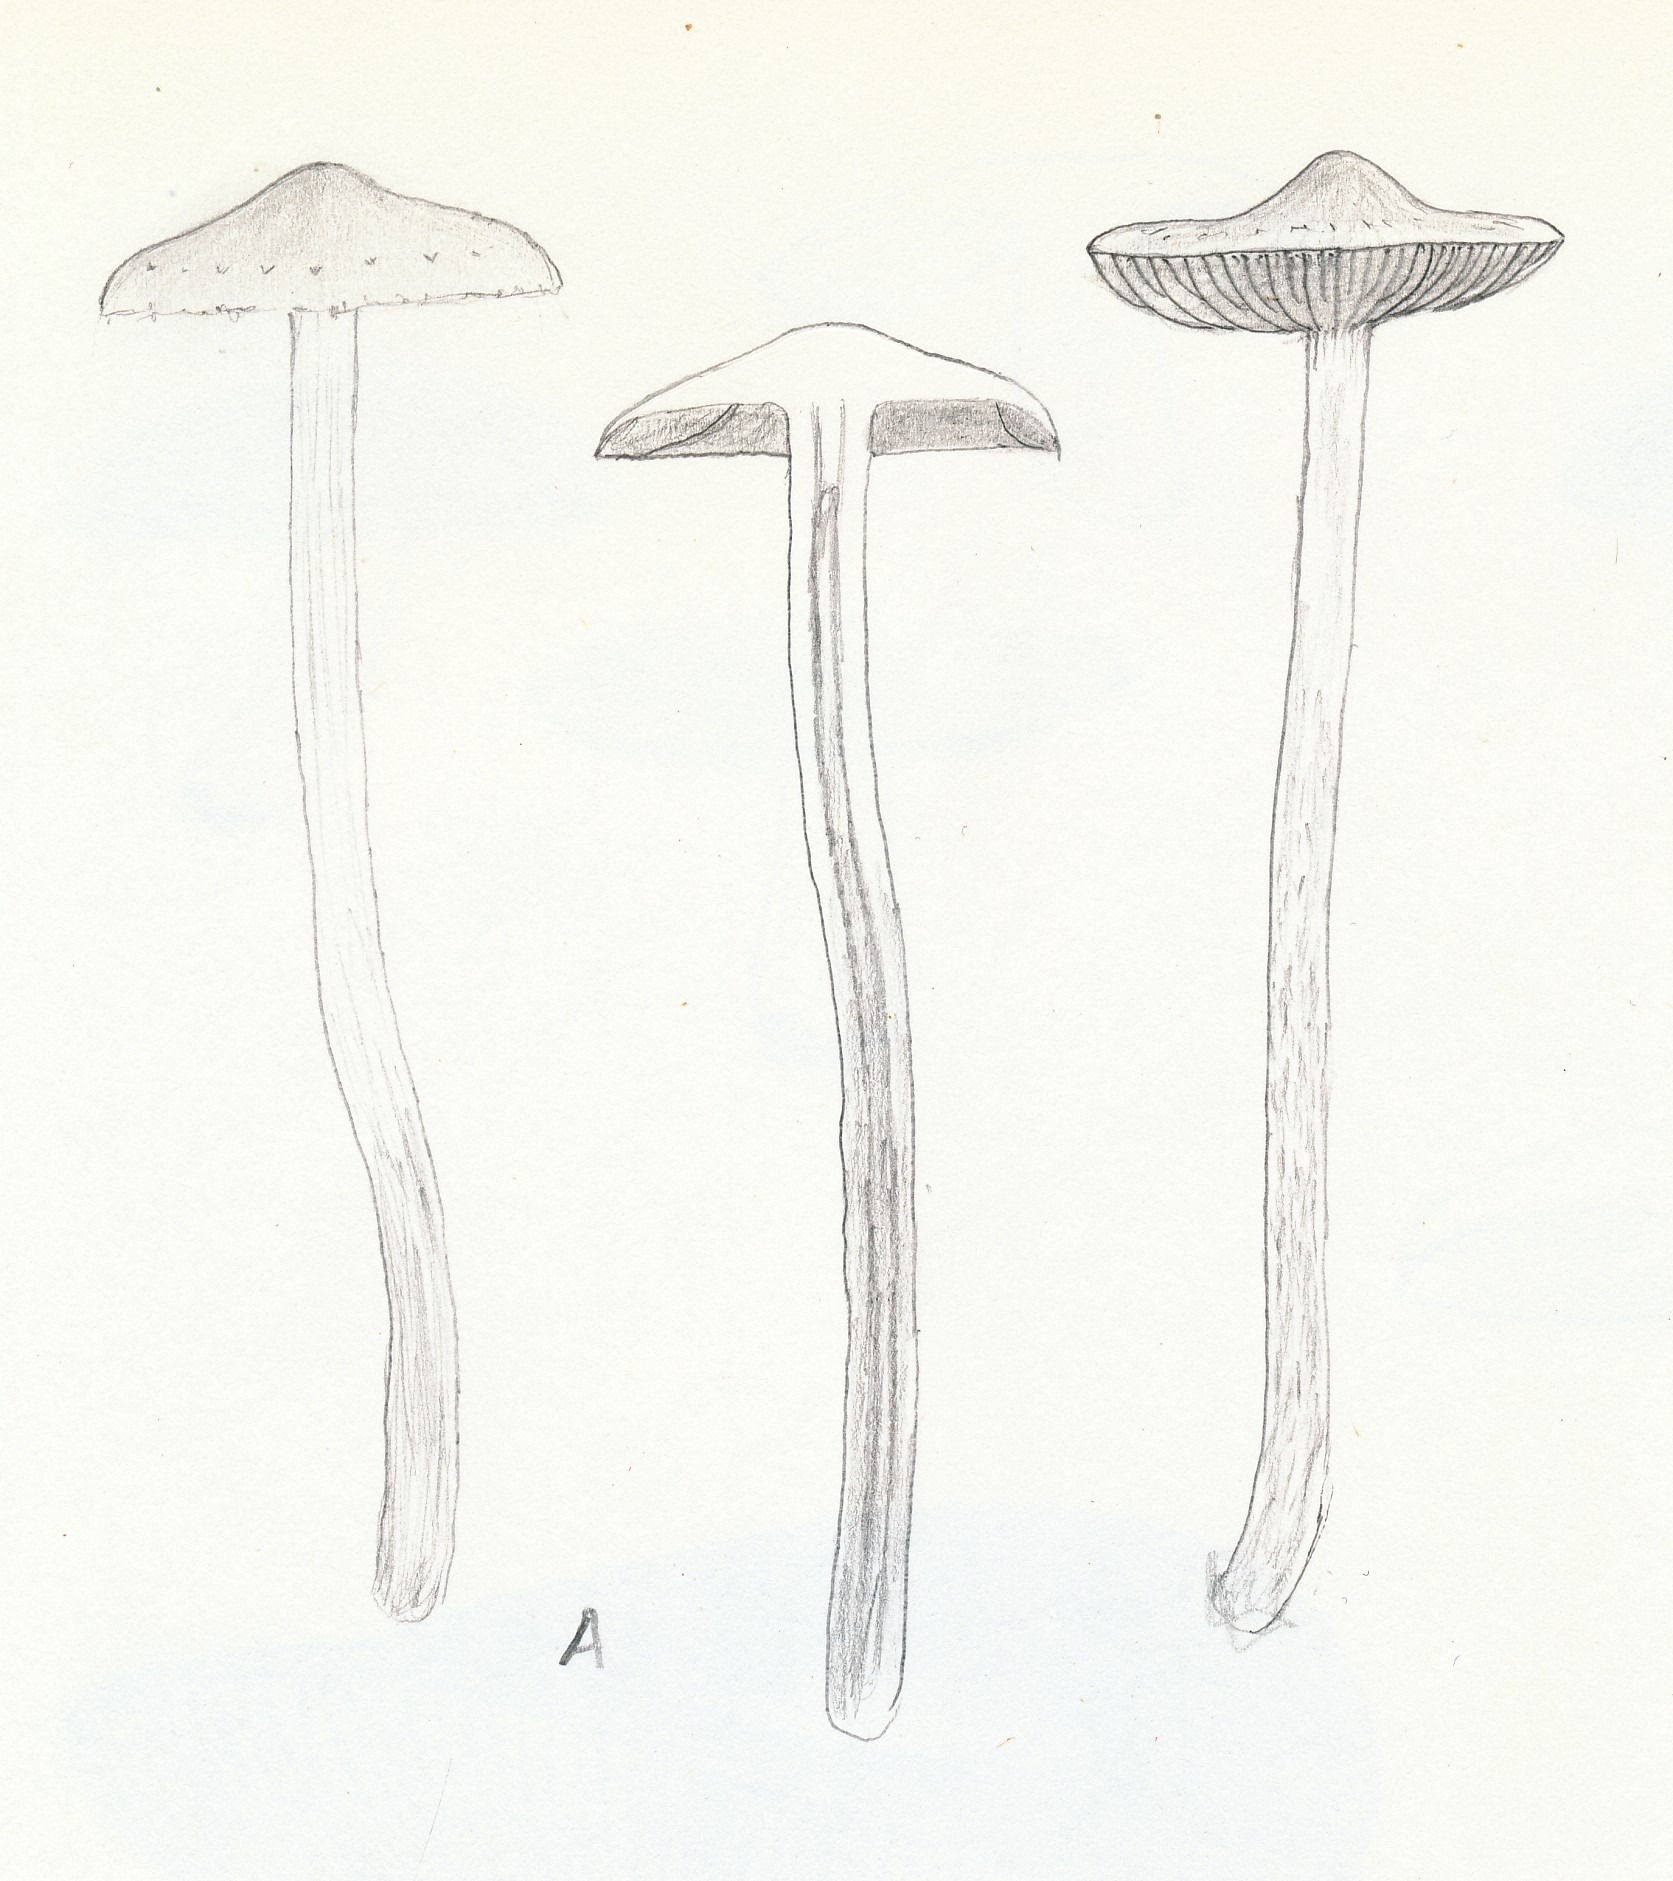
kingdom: Fungi
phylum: Basidiomycota
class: Agaricomycetes
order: Agaricales
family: Strophariaceae
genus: Leratiomyces
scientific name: Leratiomyces percevalii
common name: træflis-bredblad
